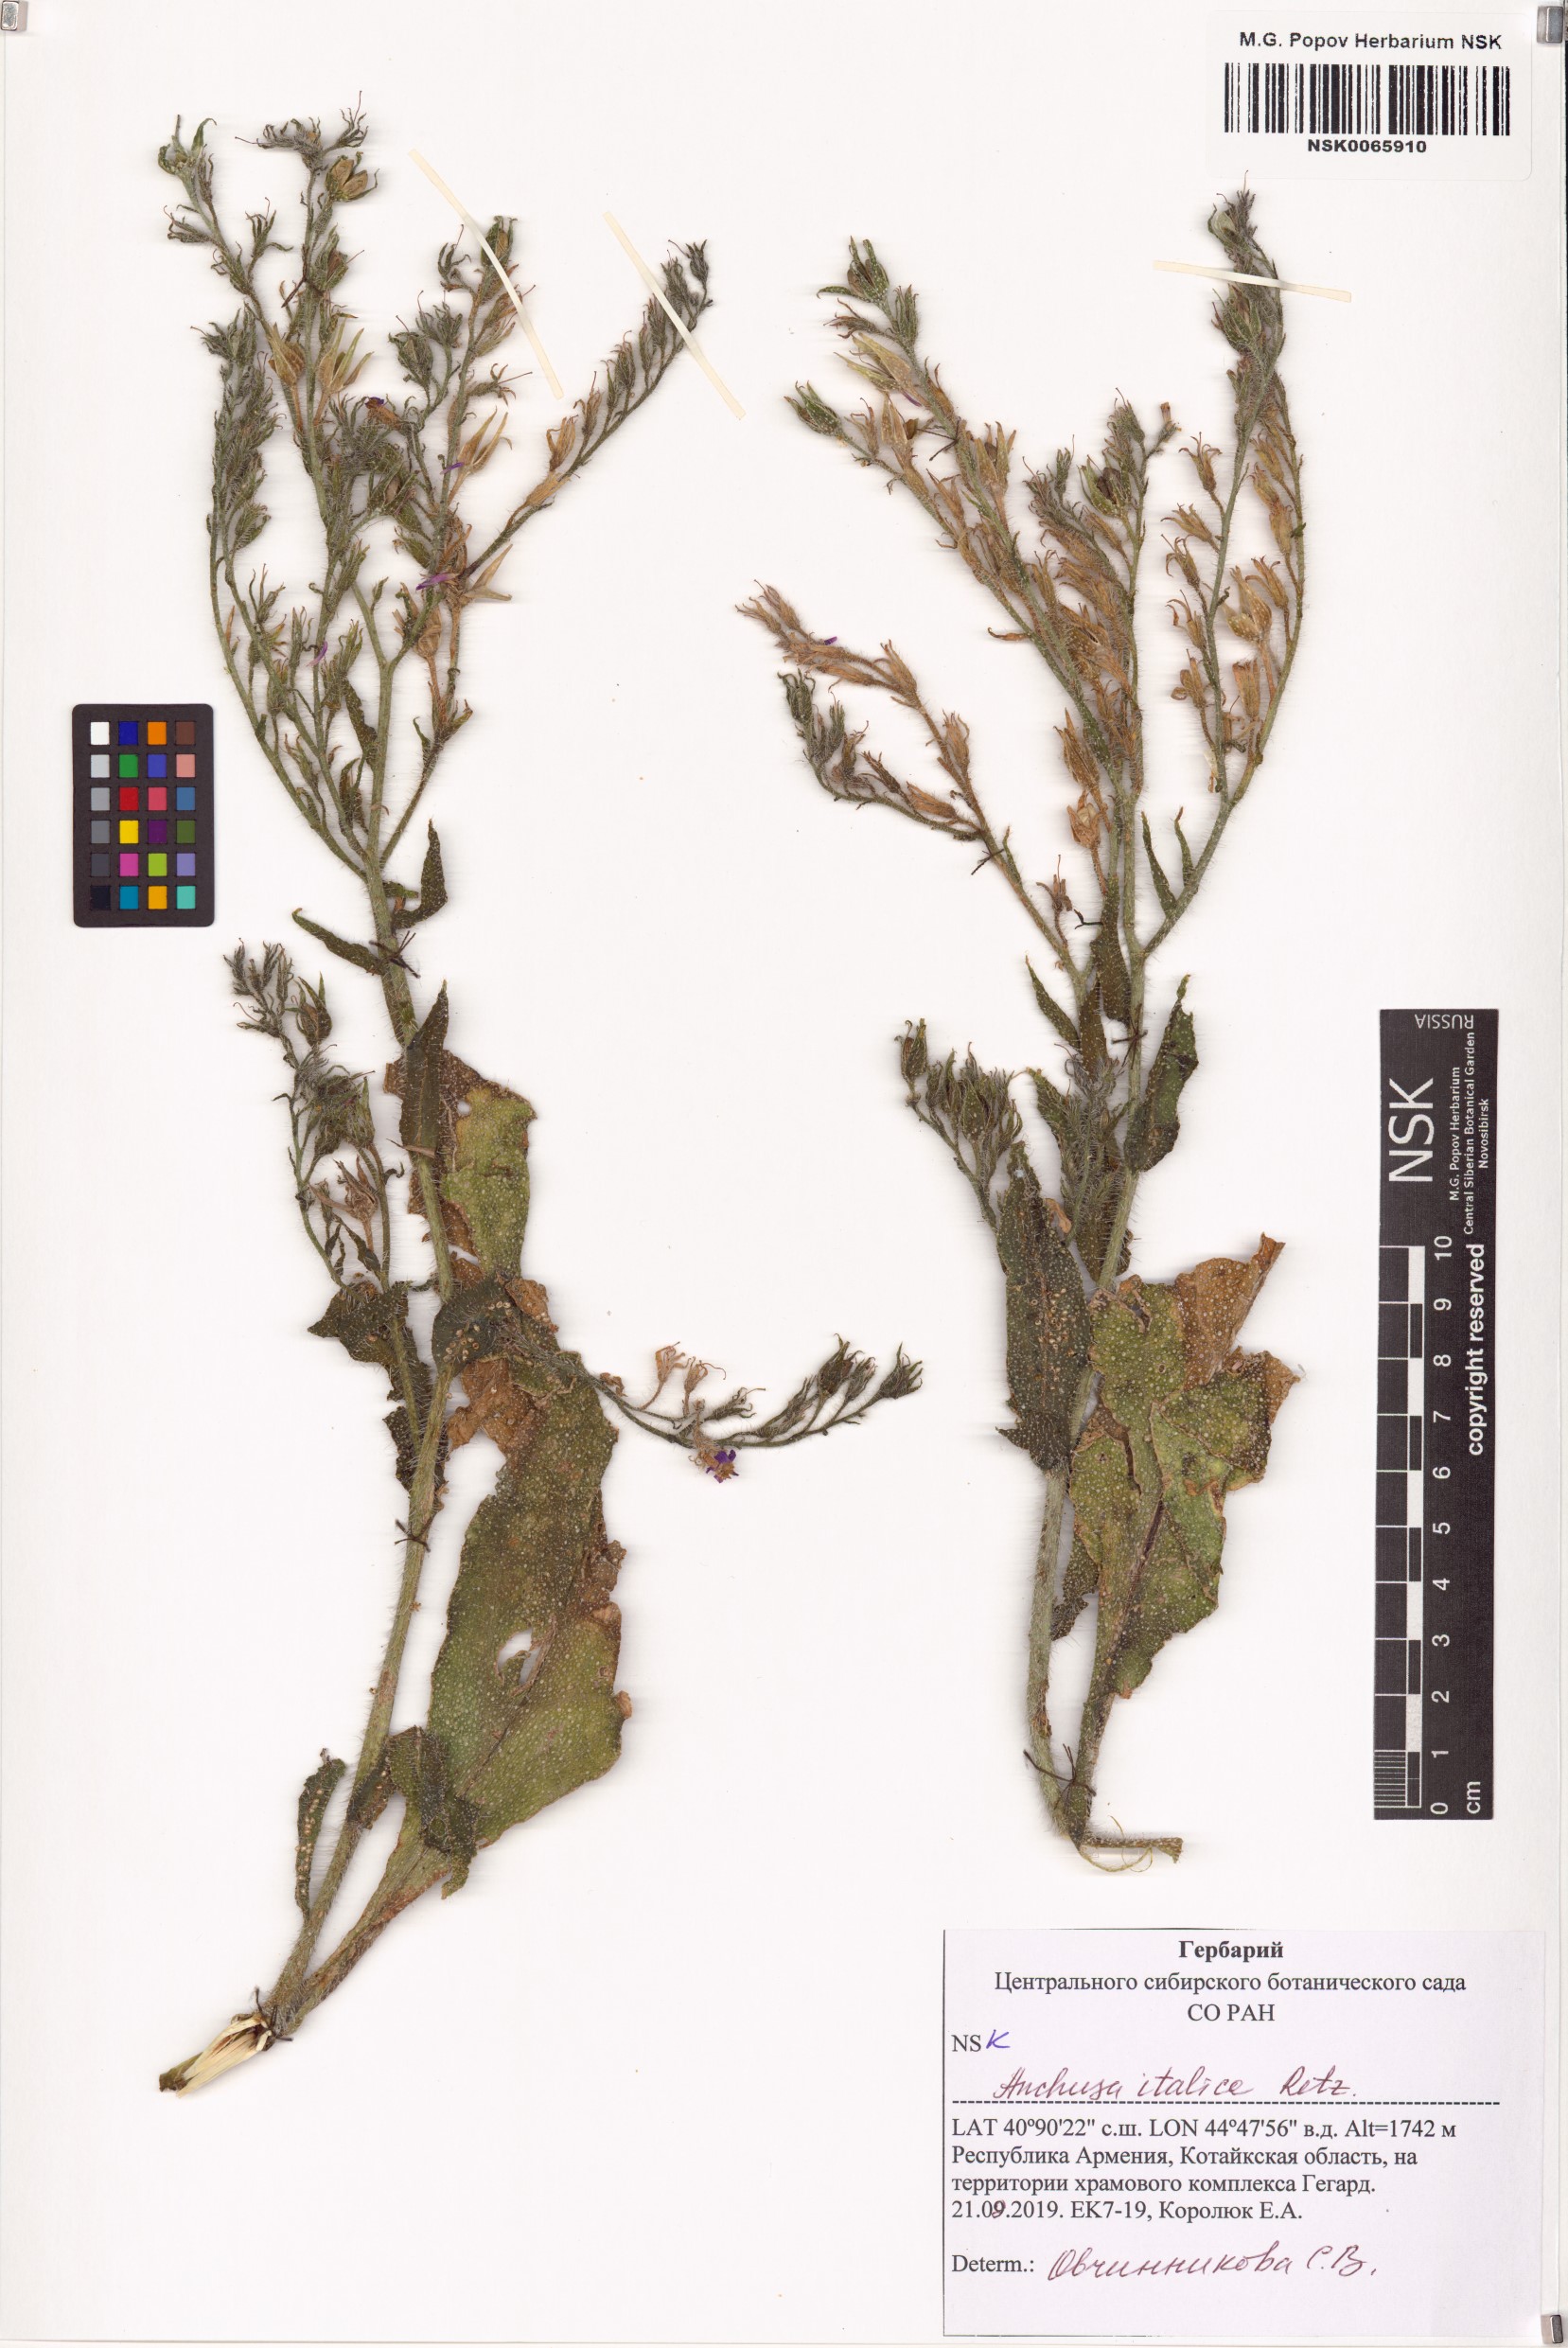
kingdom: Plantae
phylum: Tracheophyta
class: Magnoliopsida
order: Boraginales
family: Boraginaceae
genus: Anchusa
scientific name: Anchusa azurea
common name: Garden anchusa
